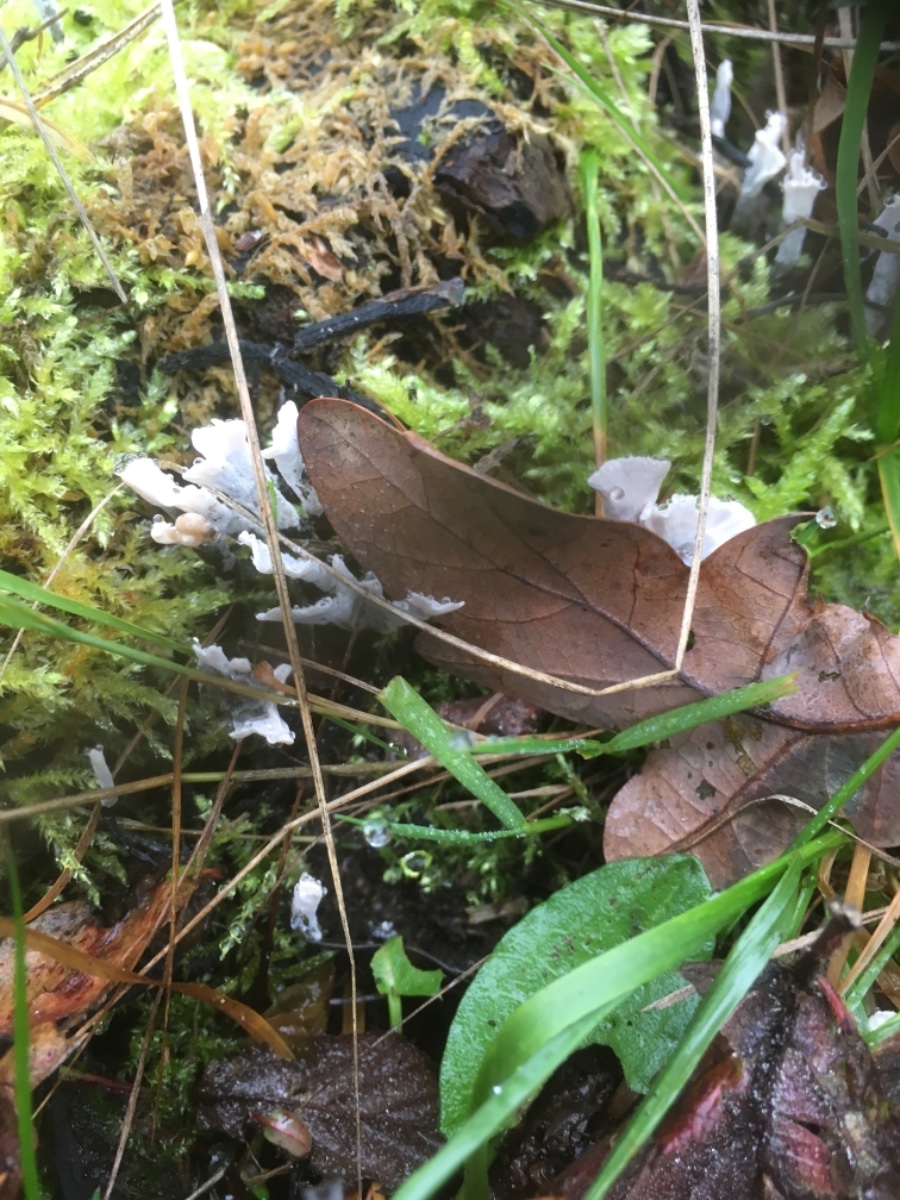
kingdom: Fungi
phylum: Ascomycota
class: Sordariomycetes
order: Xylariales
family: Xylariaceae
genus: Xylaria
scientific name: Xylaria hypoxylon
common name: grenet stødsvamp
